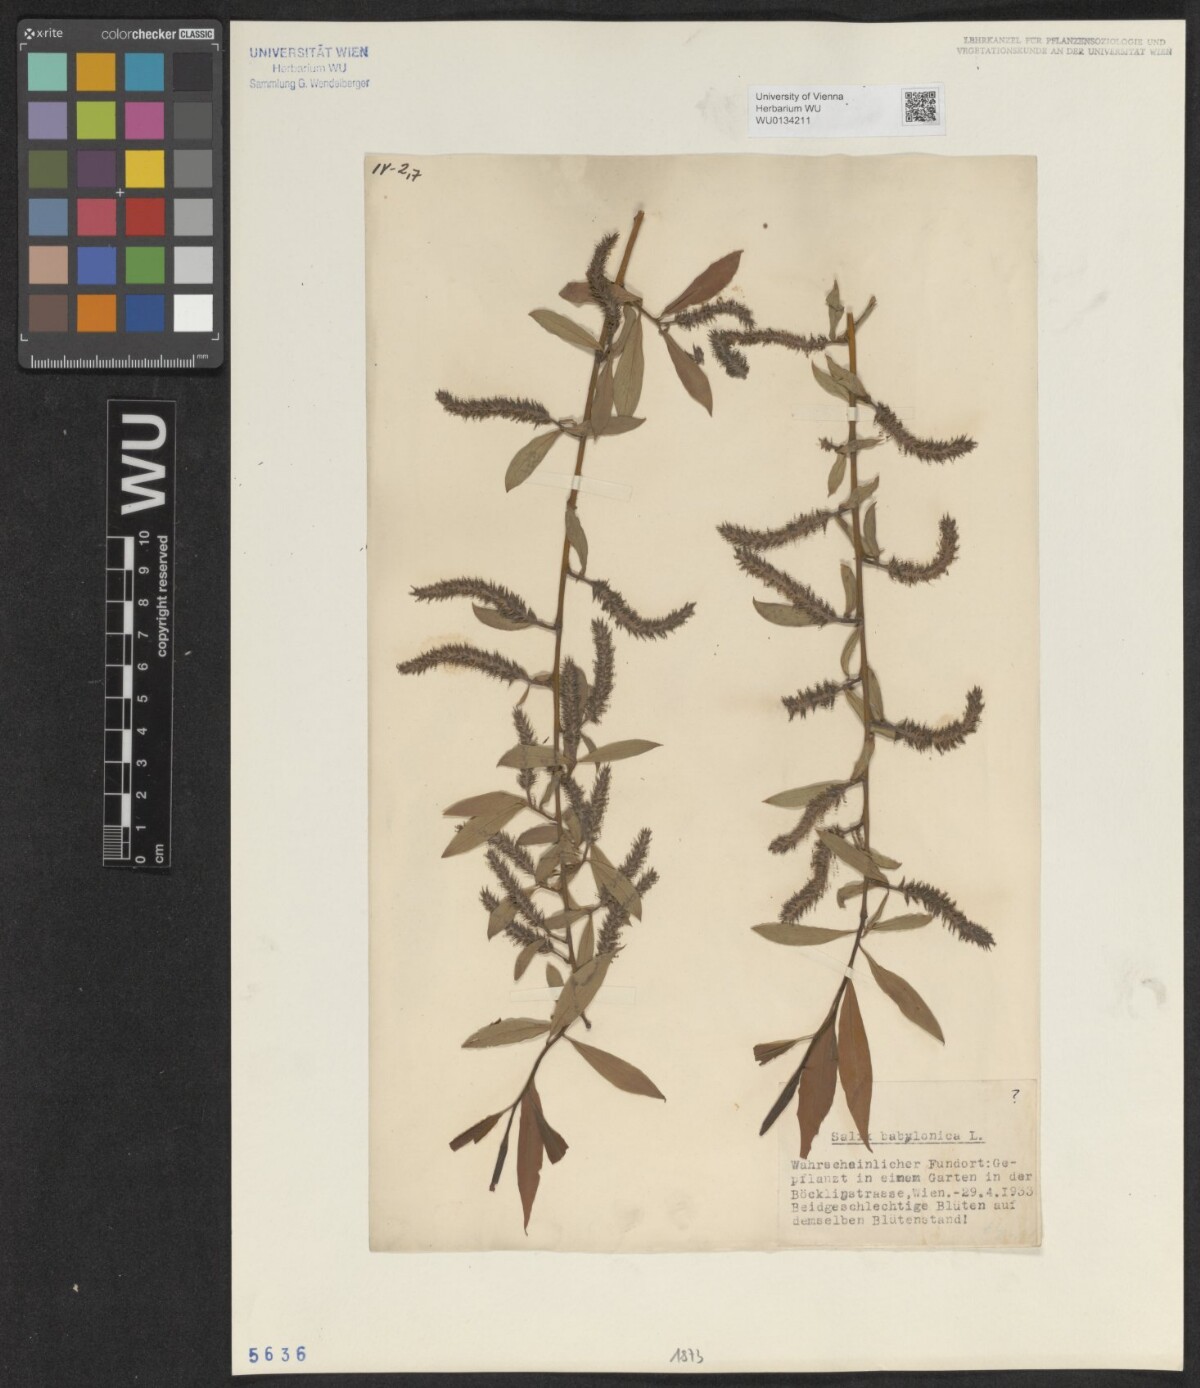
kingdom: Plantae
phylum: Tracheophyta
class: Magnoliopsida
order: Malpighiales
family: Salicaceae
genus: Salix
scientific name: Salix babylonica
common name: Weeping willow
